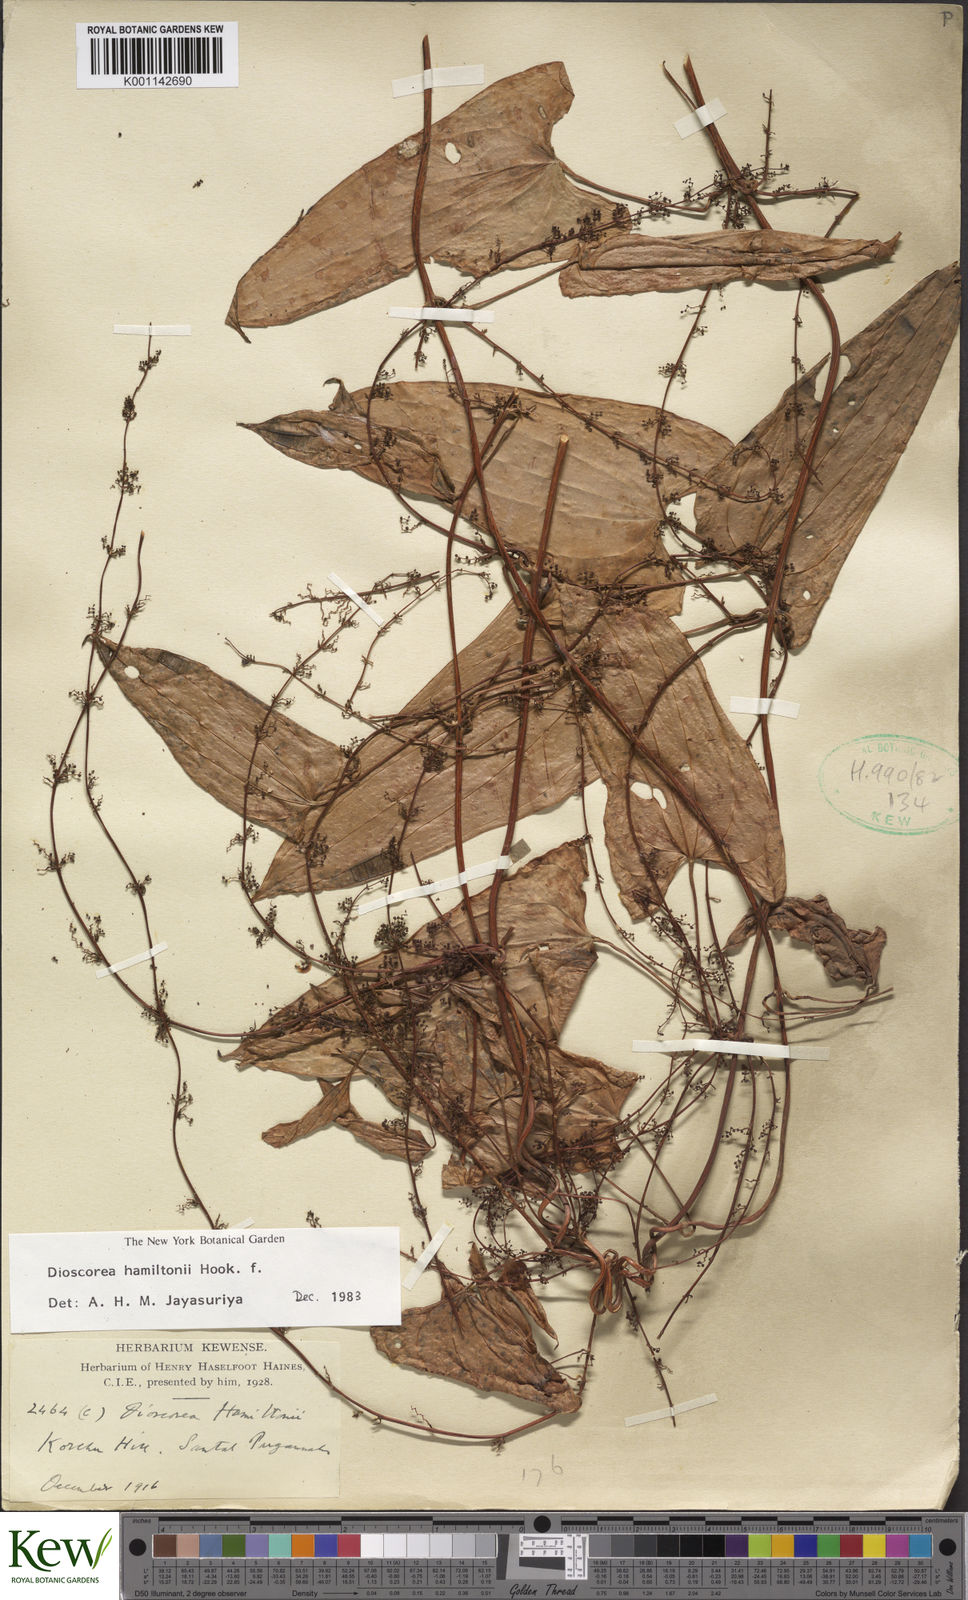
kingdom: Plantae
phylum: Tracheophyta
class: Liliopsida
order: Dioscoreales
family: Dioscoreaceae
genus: Dioscorea
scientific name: Dioscorea hamiltonii
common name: Mountain yam
